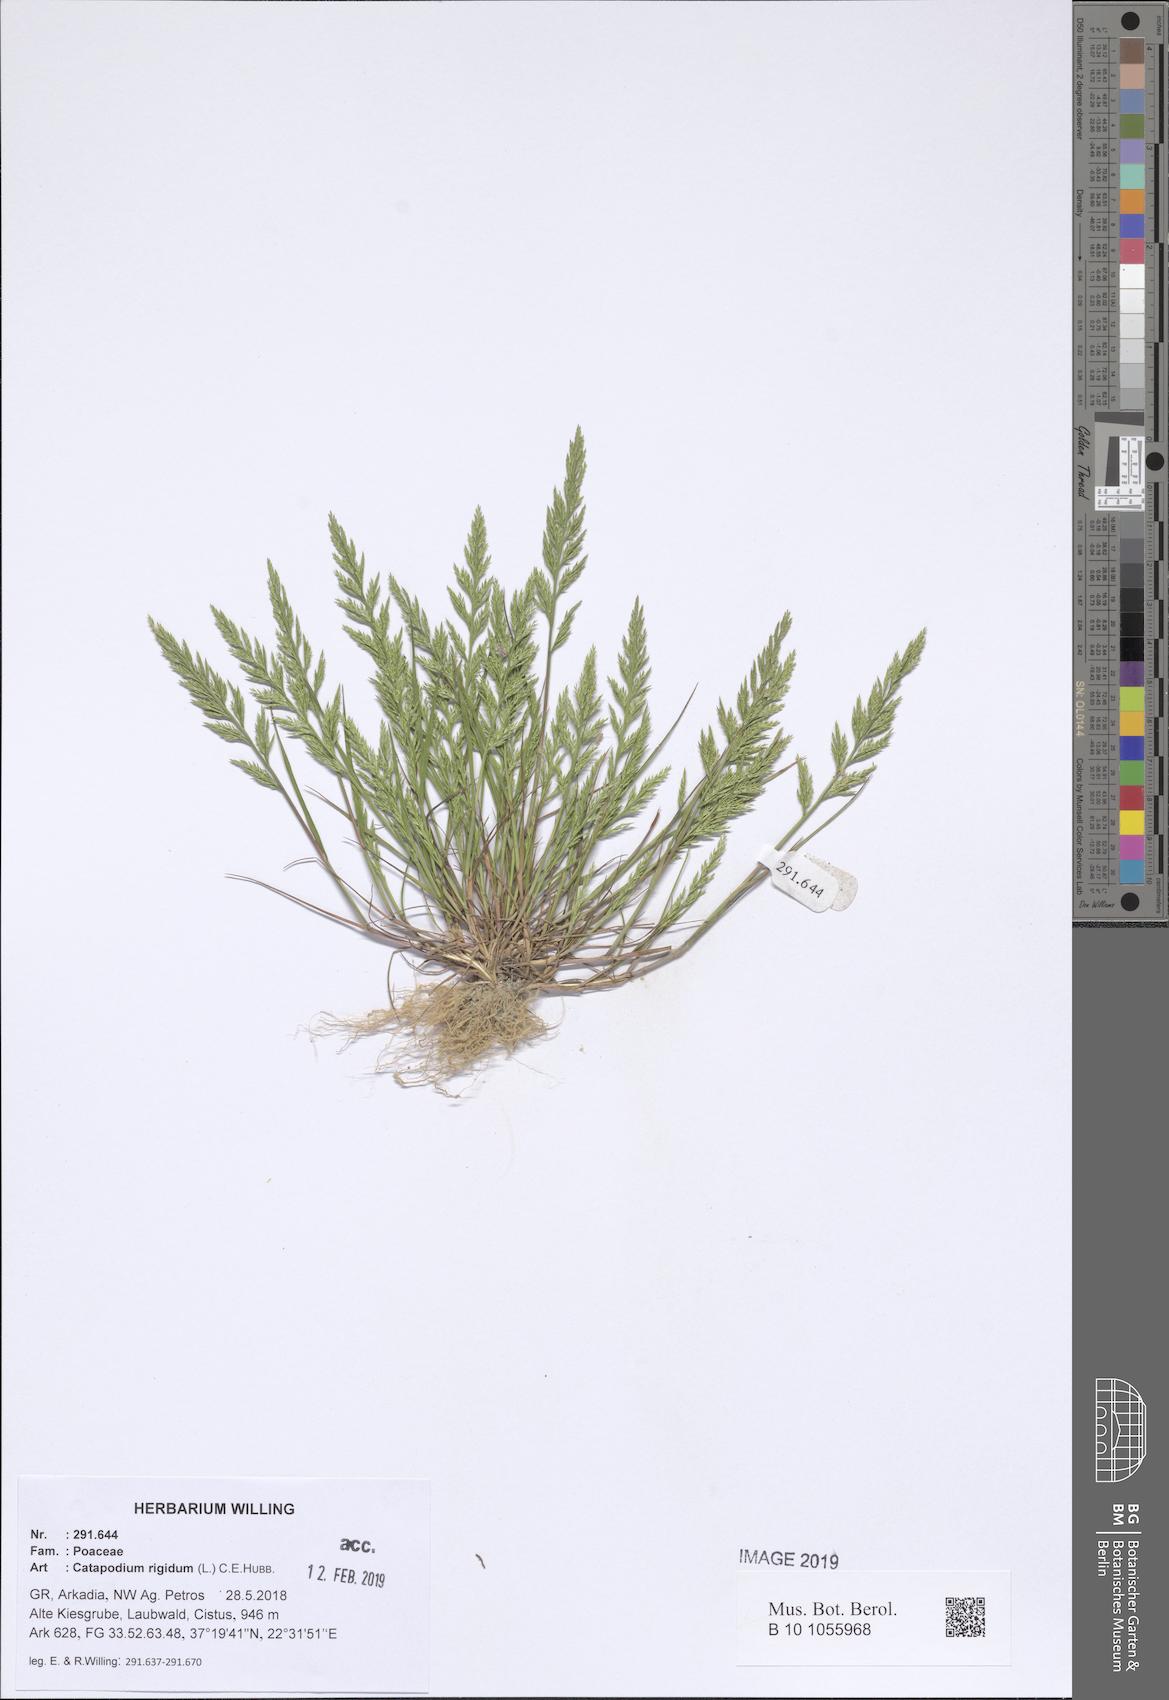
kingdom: Plantae
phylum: Tracheophyta
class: Liliopsida
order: Poales
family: Poaceae
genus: Catapodium
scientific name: Catapodium rigidum
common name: Fern-grass
